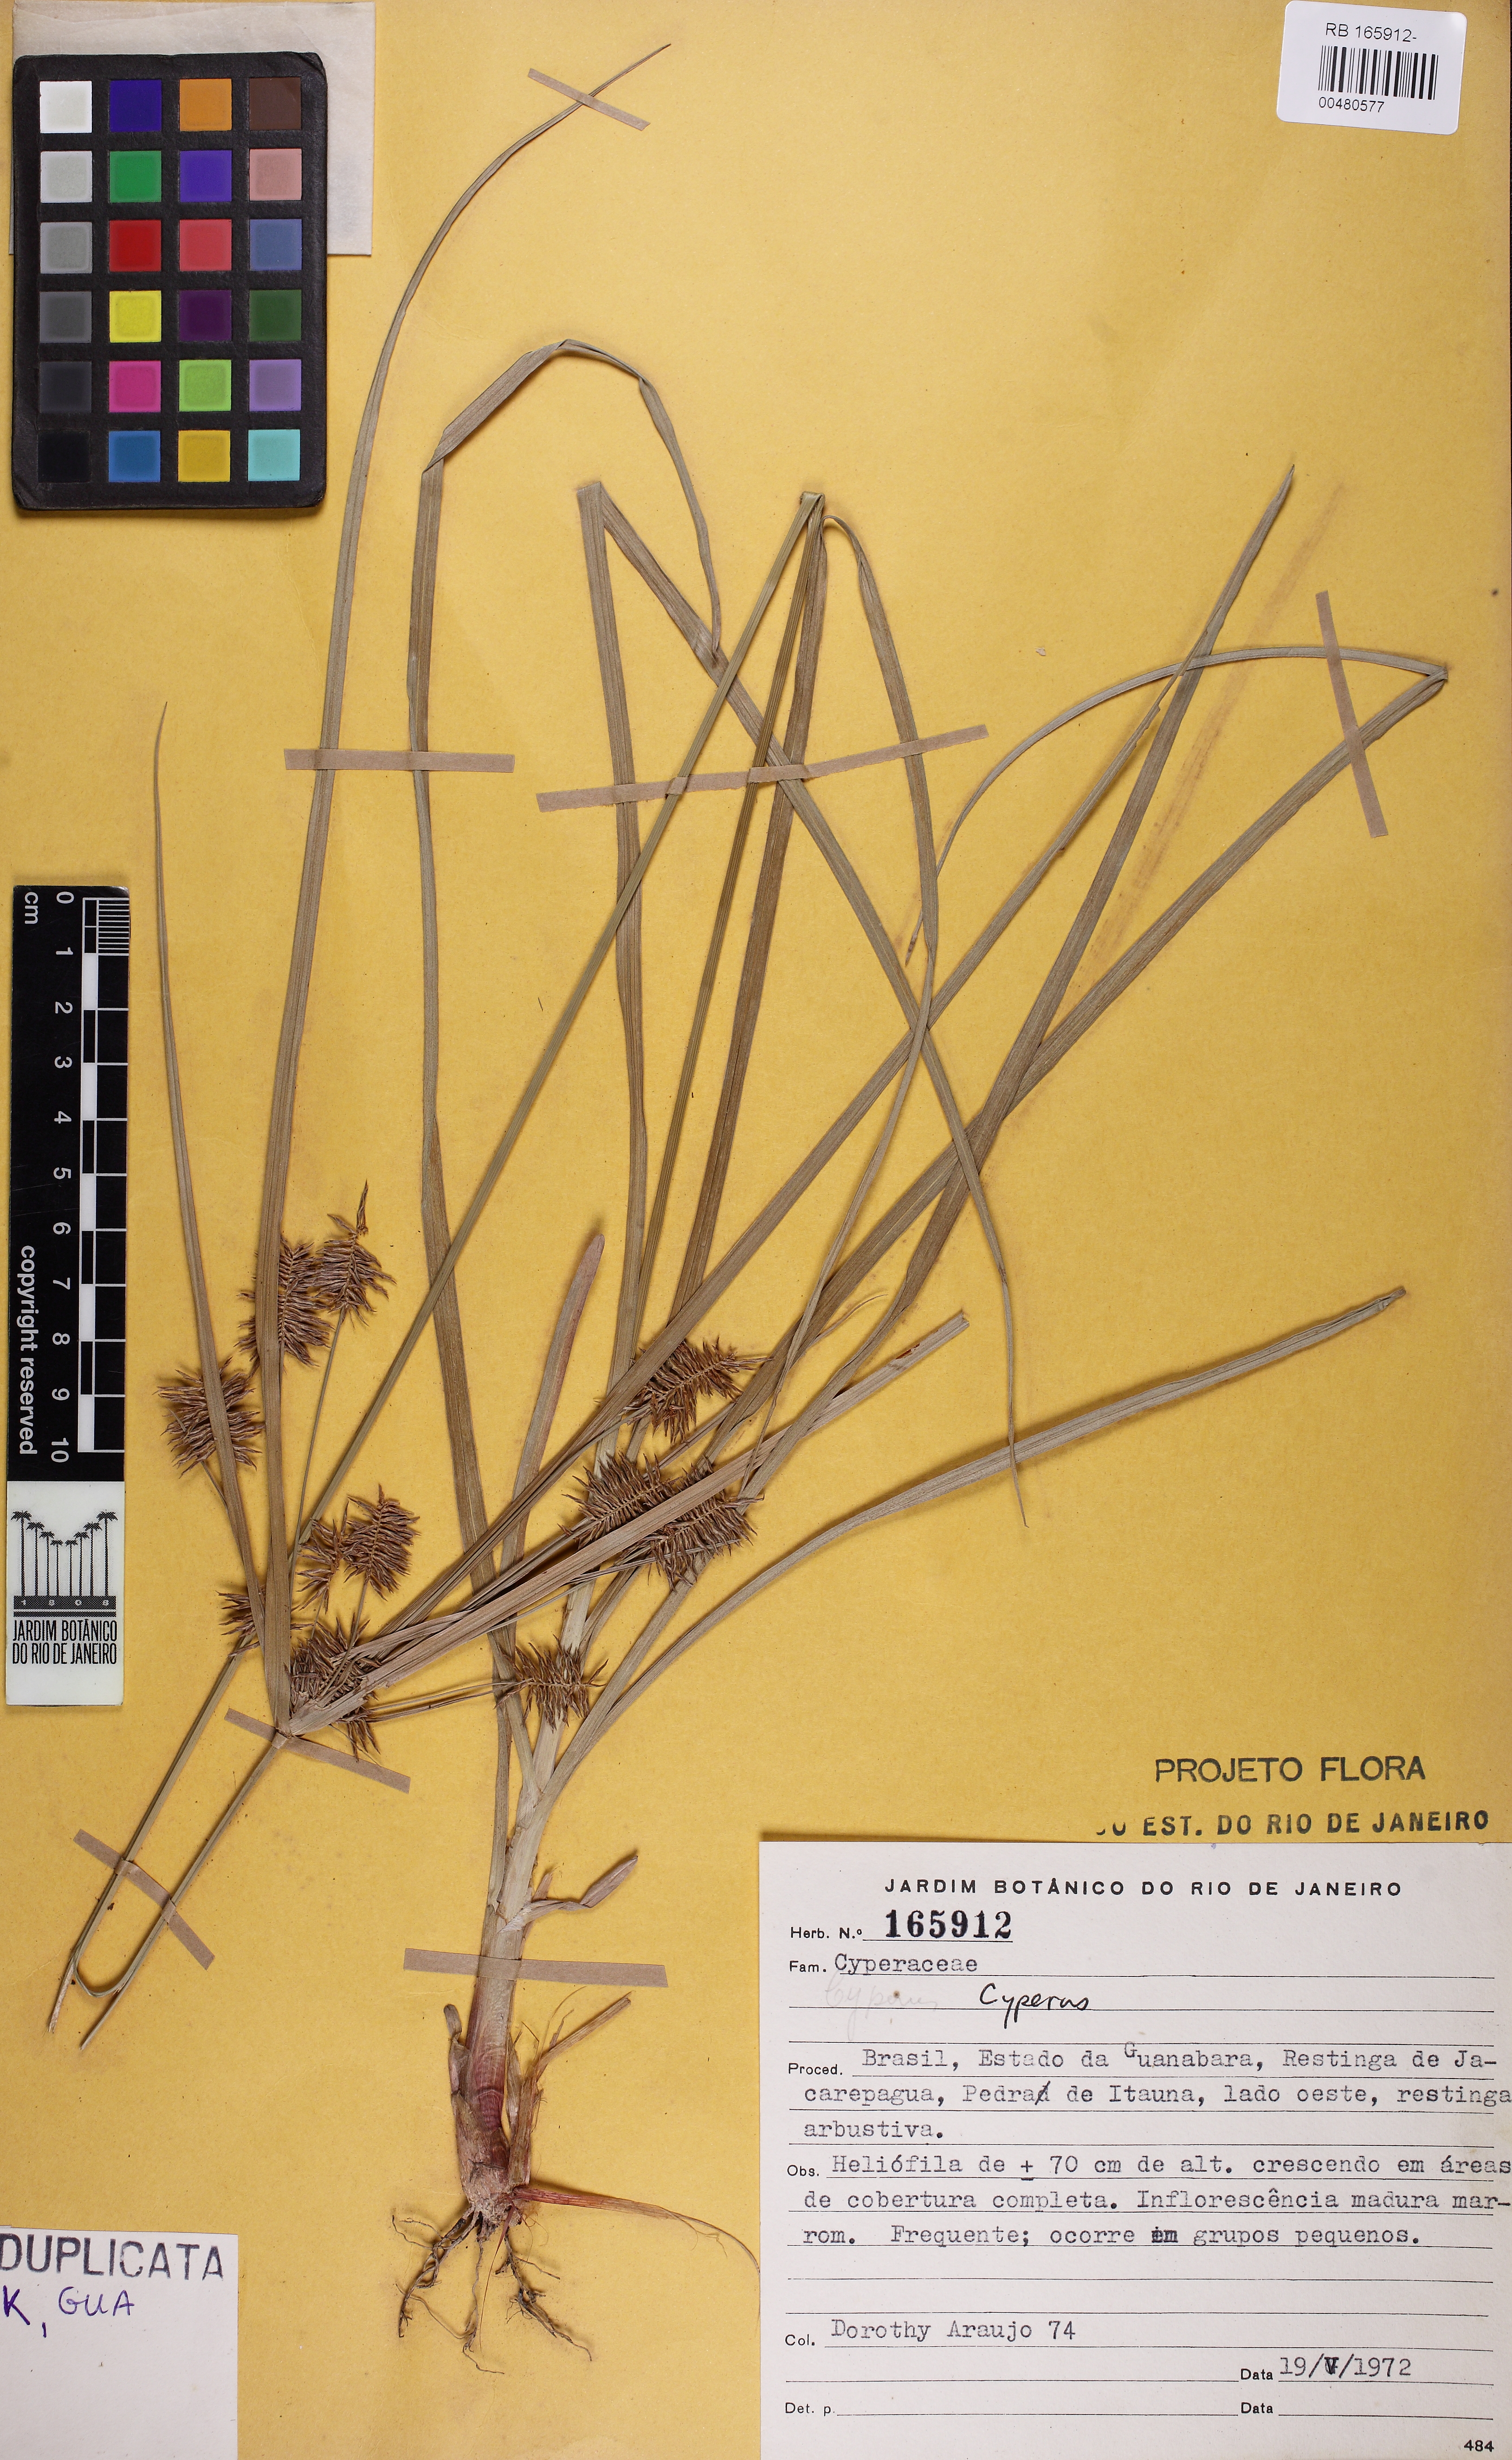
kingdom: Plantae
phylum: Tracheophyta
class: Liliopsida
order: Poales
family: Cyperaceae
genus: Cyperus
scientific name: Cyperus
